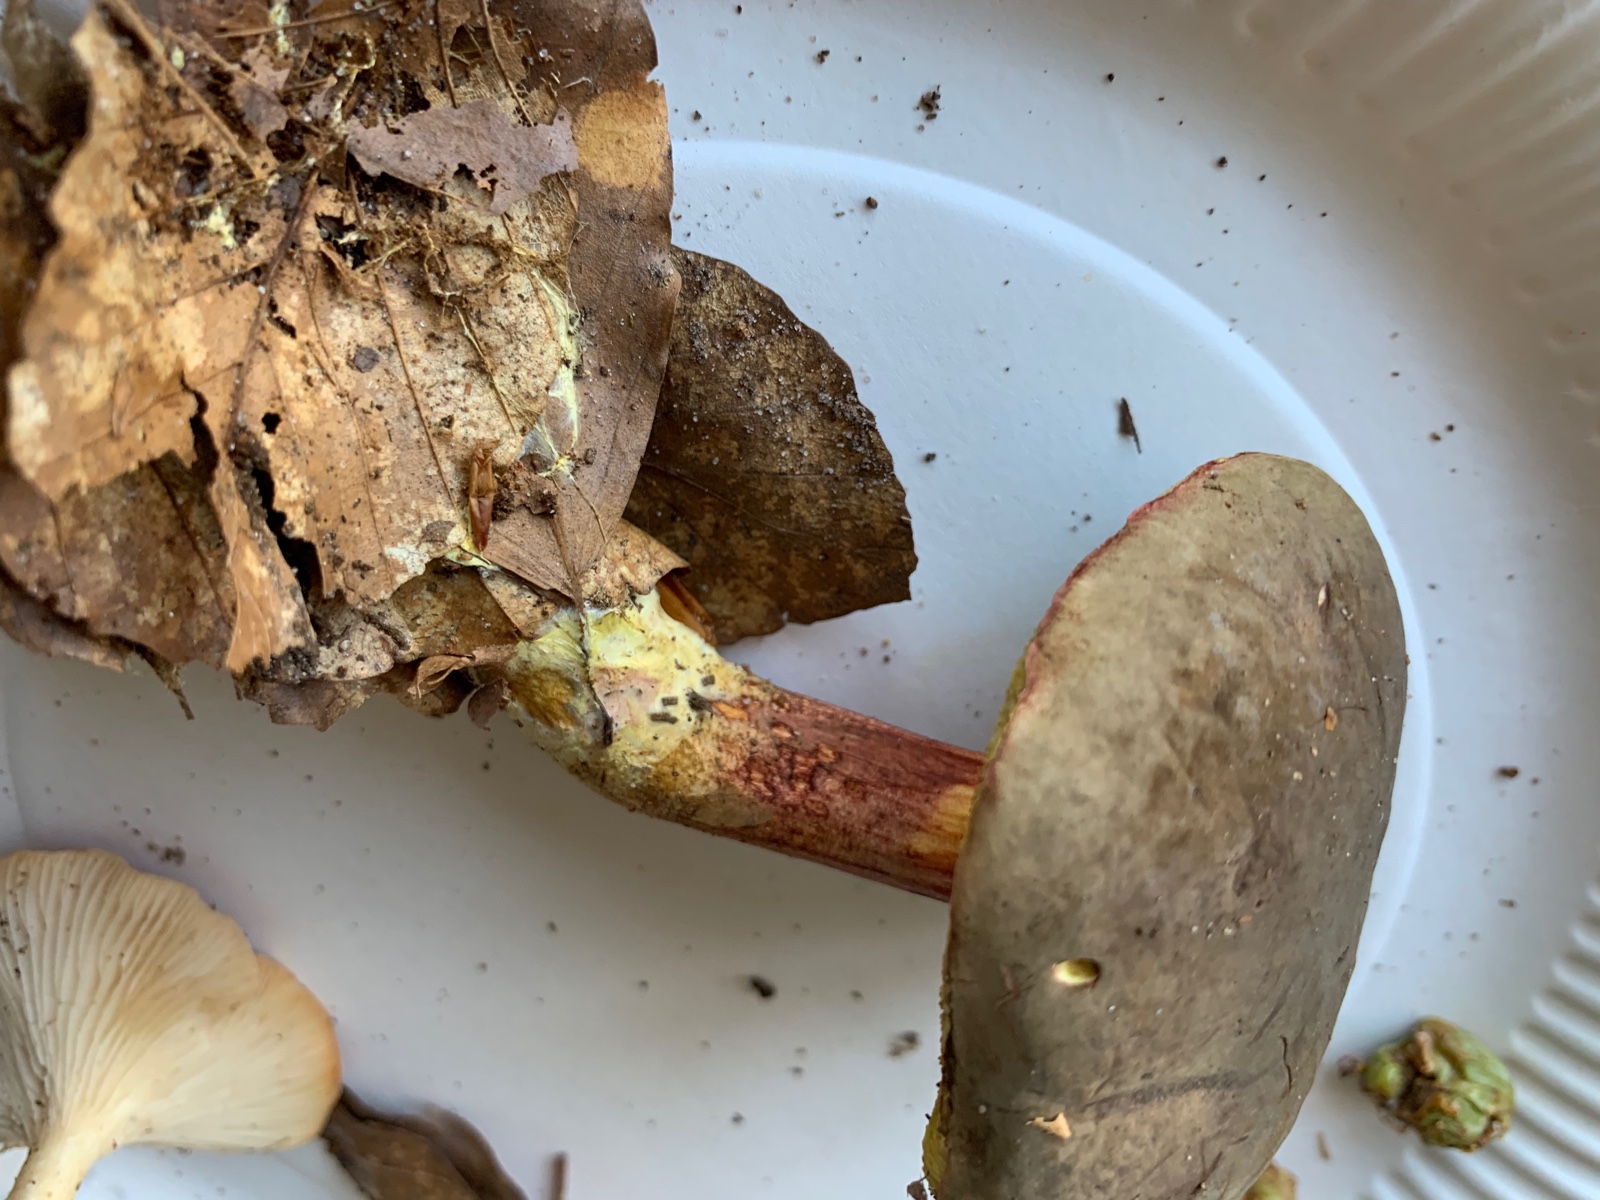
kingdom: Fungi
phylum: Basidiomycota
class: Agaricomycetes
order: Boletales
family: Boletaceae
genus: Xerocomellus
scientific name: Xerocomellus pruinatus
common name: dugget rørhat
